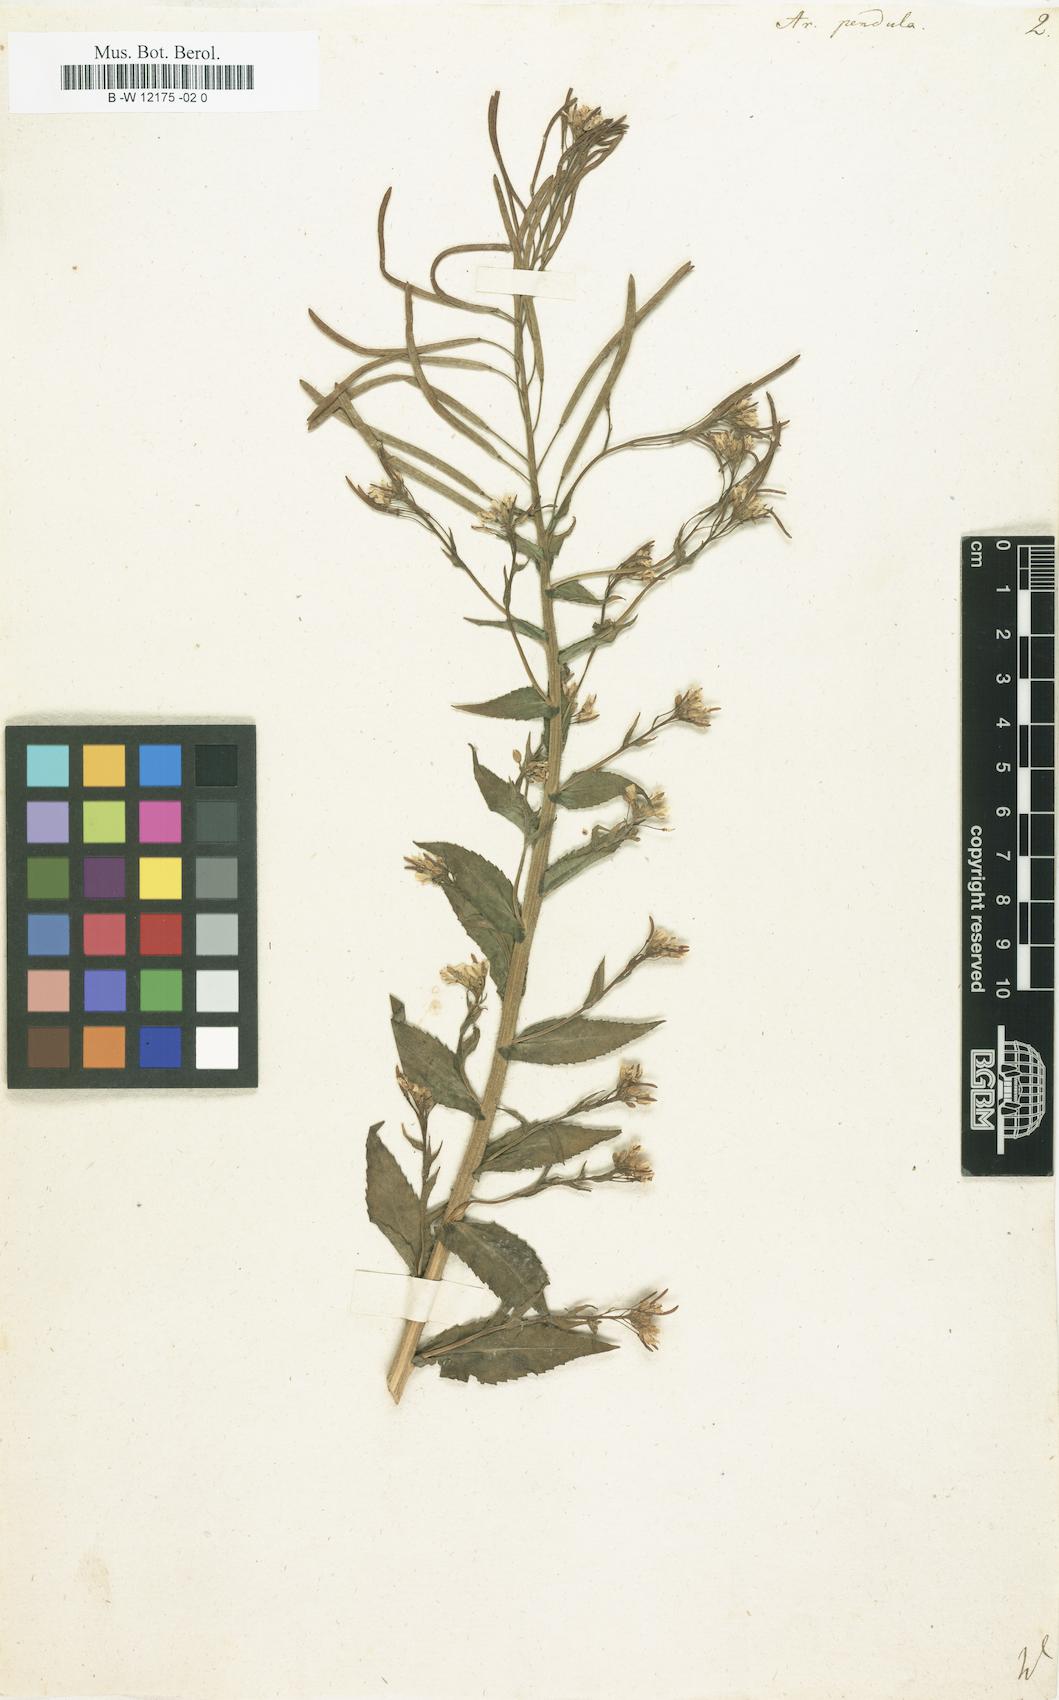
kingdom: Plantae
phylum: Tracheophyta
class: Magnoliopsida
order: Brassicales
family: Brassicaceae
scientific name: Brassicaceae
